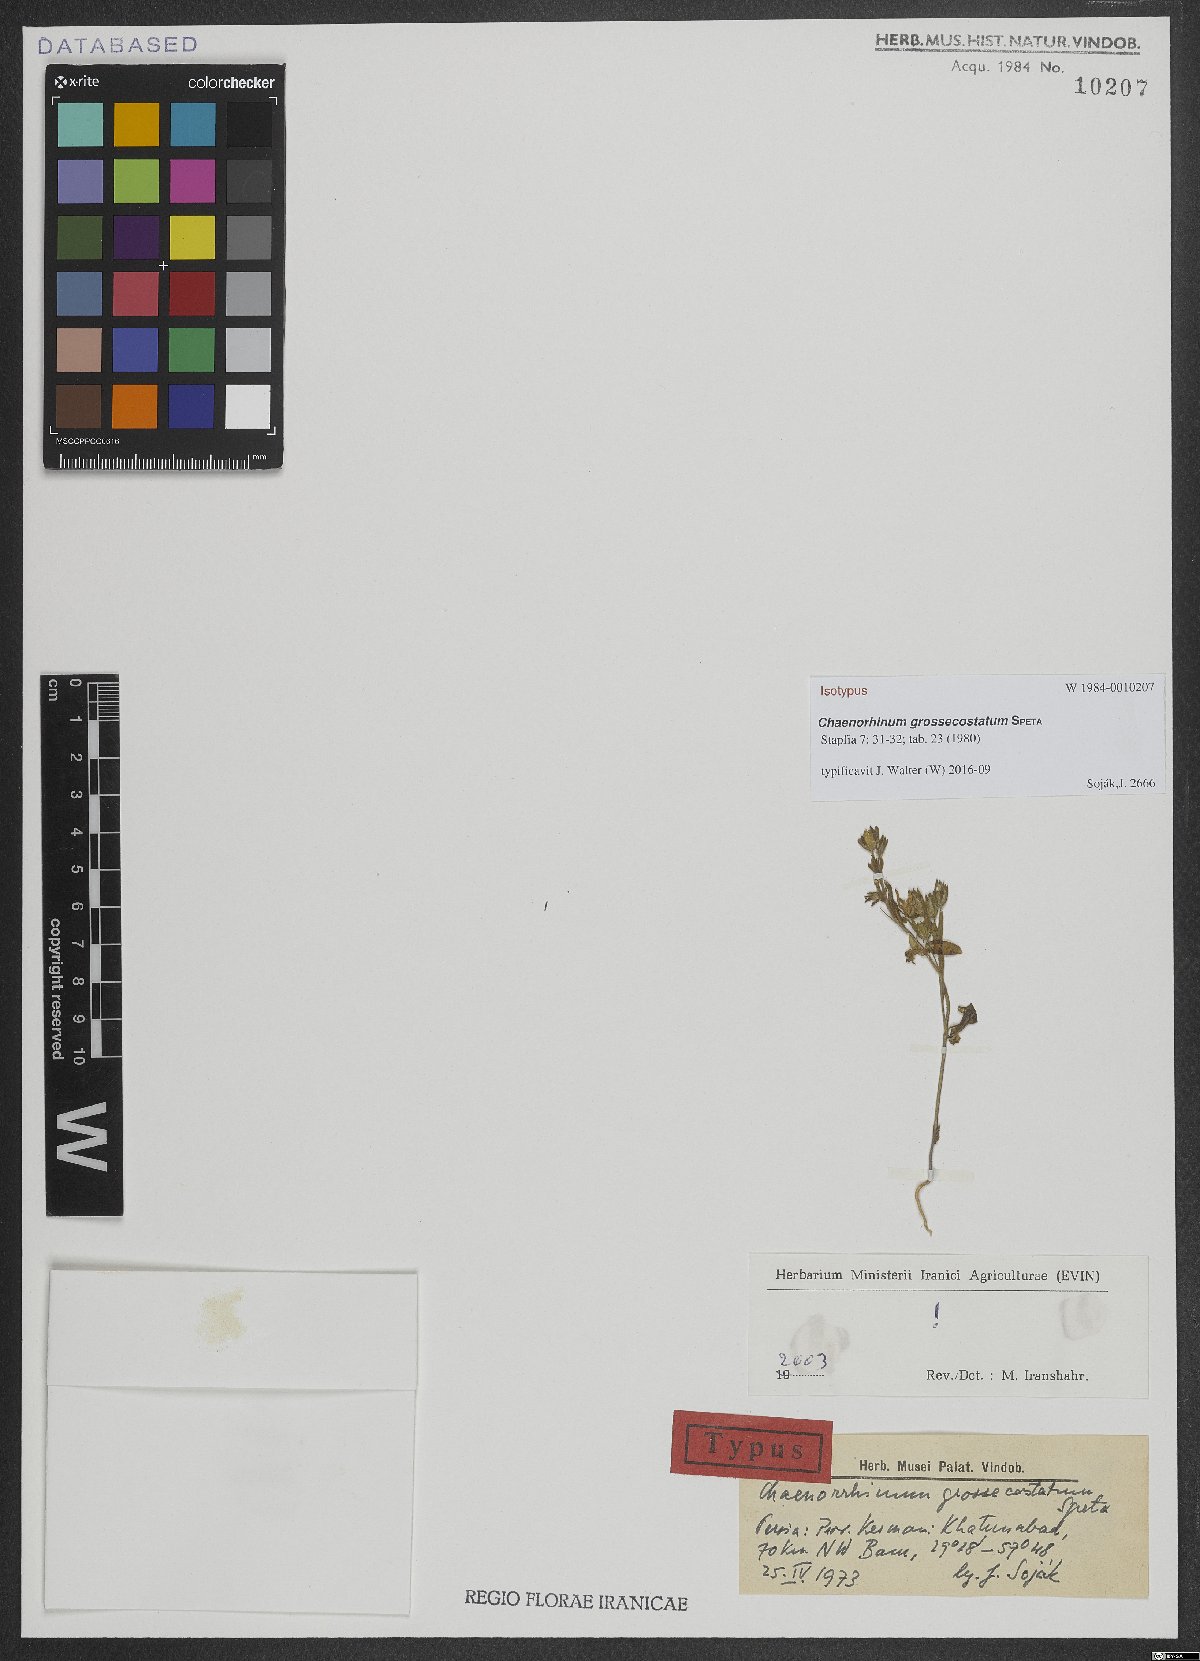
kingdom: Plantae
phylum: Tracheophyta
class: Magnoliopsida
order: Lamiales
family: Plantaginaceae
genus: Chaenorhinum
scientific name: Chaenorhinum grossecostatum
